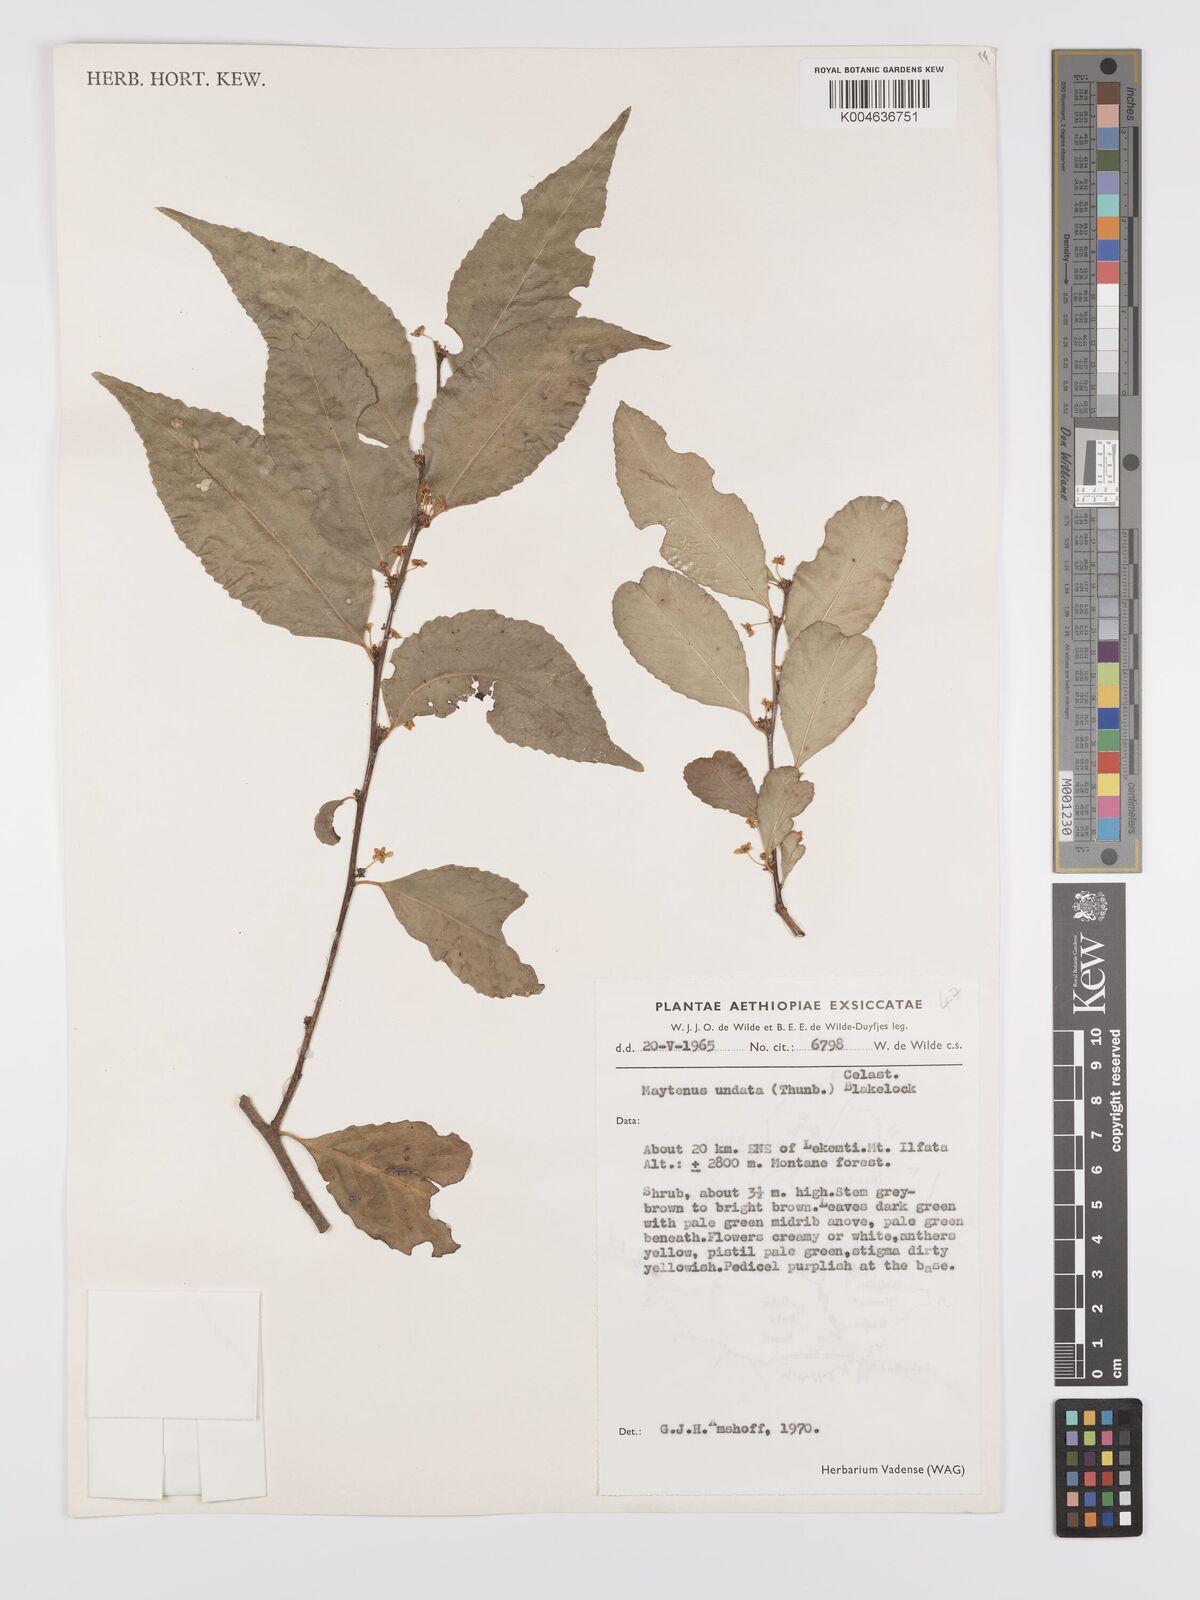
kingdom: Plantae
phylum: Tracheophyta
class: Magnoliopsida
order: Celastrales
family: Celastraceae
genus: Gymnosporia
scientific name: Gymnosporia undata
